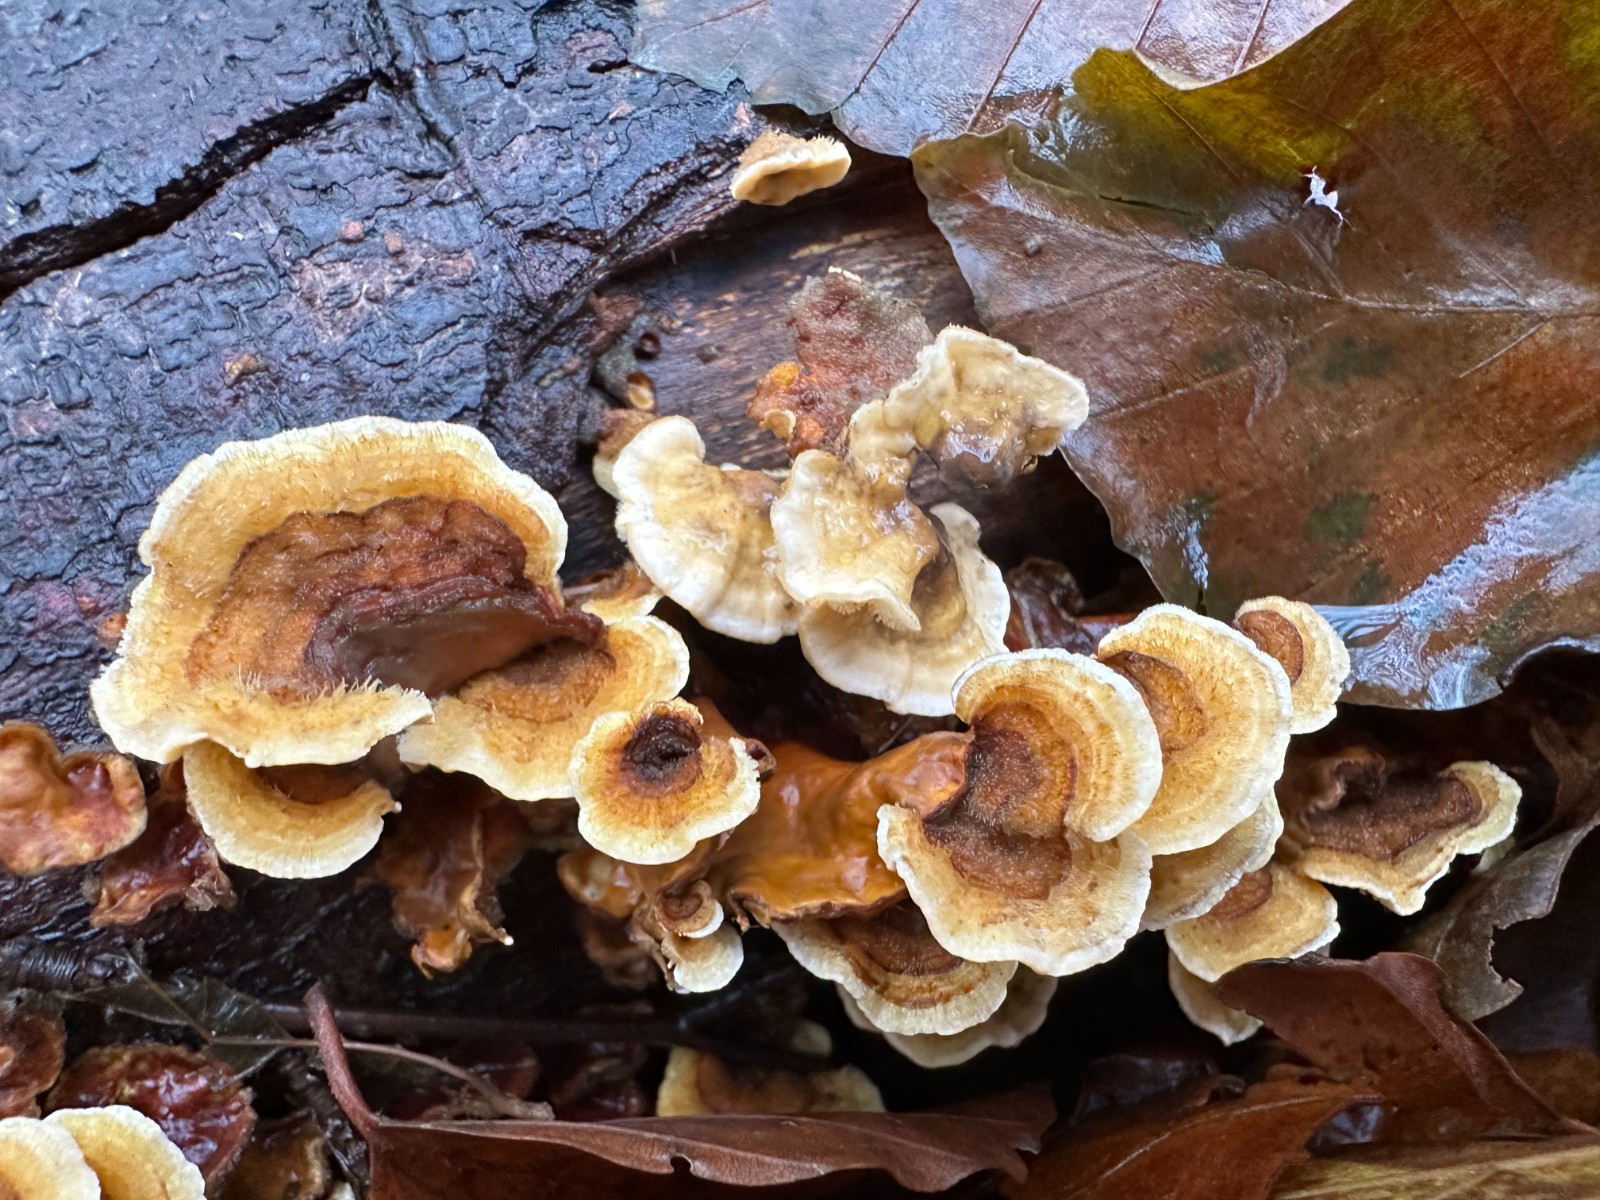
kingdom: Fungi
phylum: Basidiomycota
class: Agaricomycetes
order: Russulales
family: Stereaceae
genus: Stereum
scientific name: Stereum hirsutum
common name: håret lædersvamp
